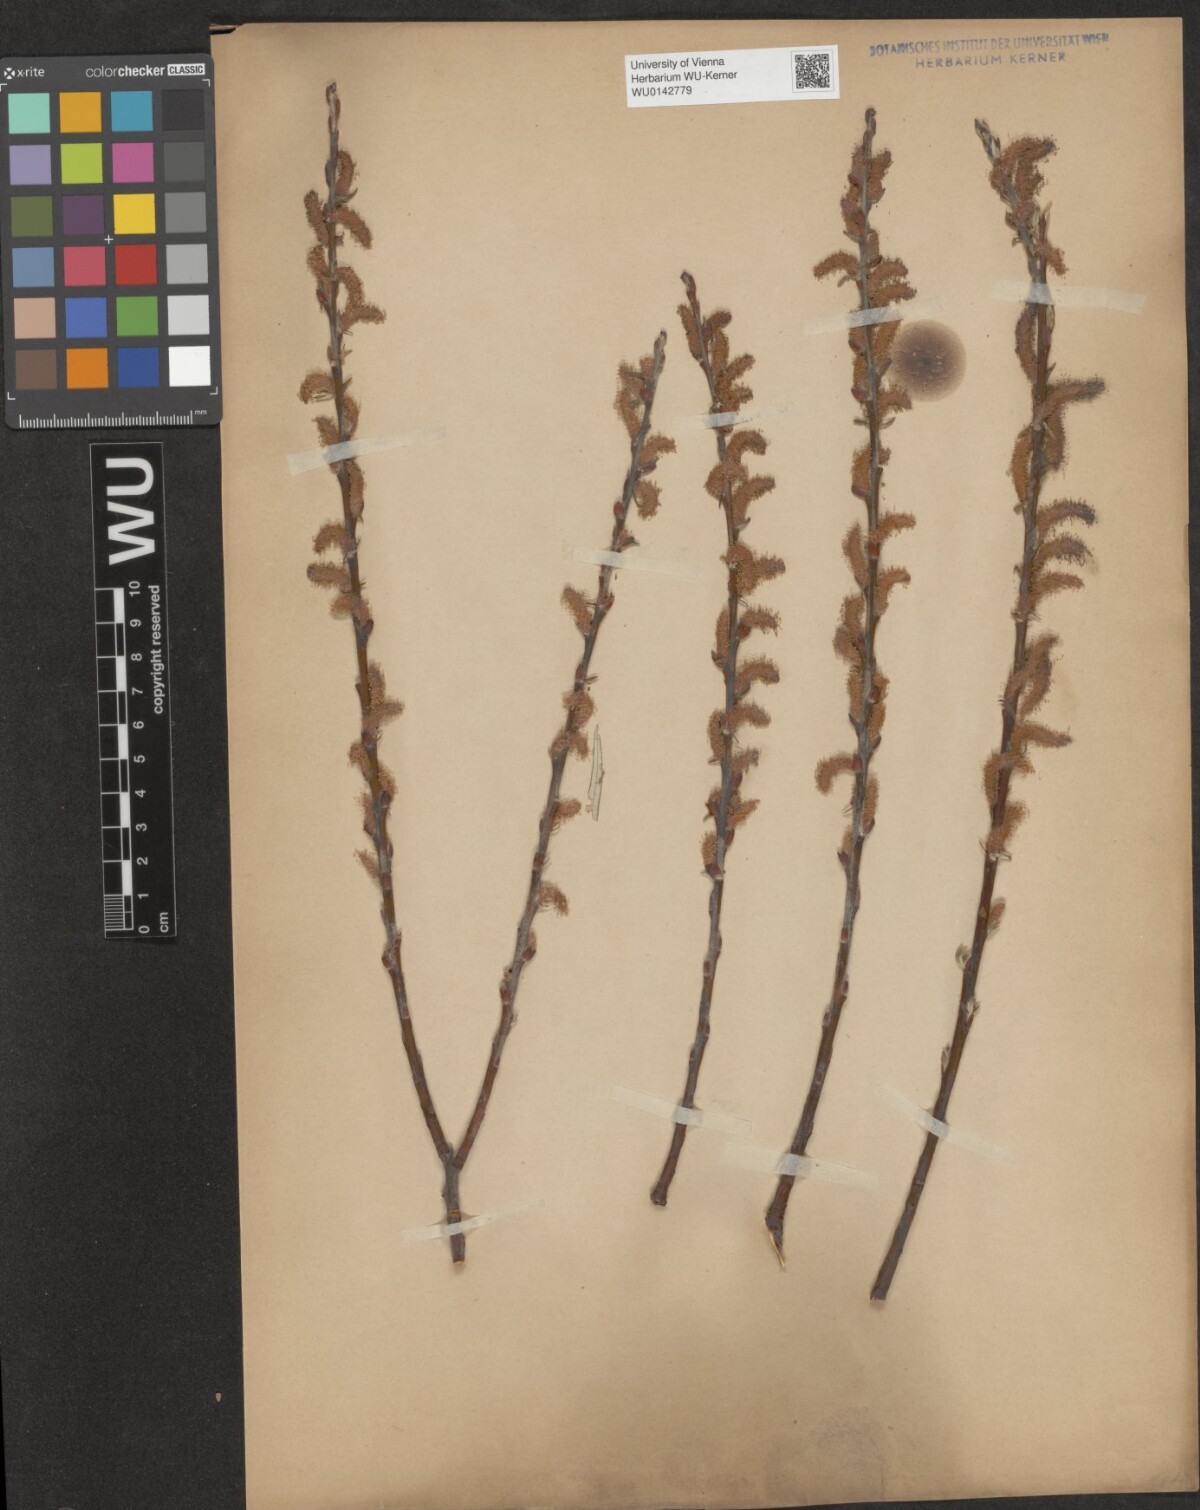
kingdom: Plantae
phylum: Tracheophyta
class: Magnoliopsida
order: Malpighiales
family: Salicaceae
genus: Salix
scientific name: Salix eleagnos
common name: Elaeagnus willow
